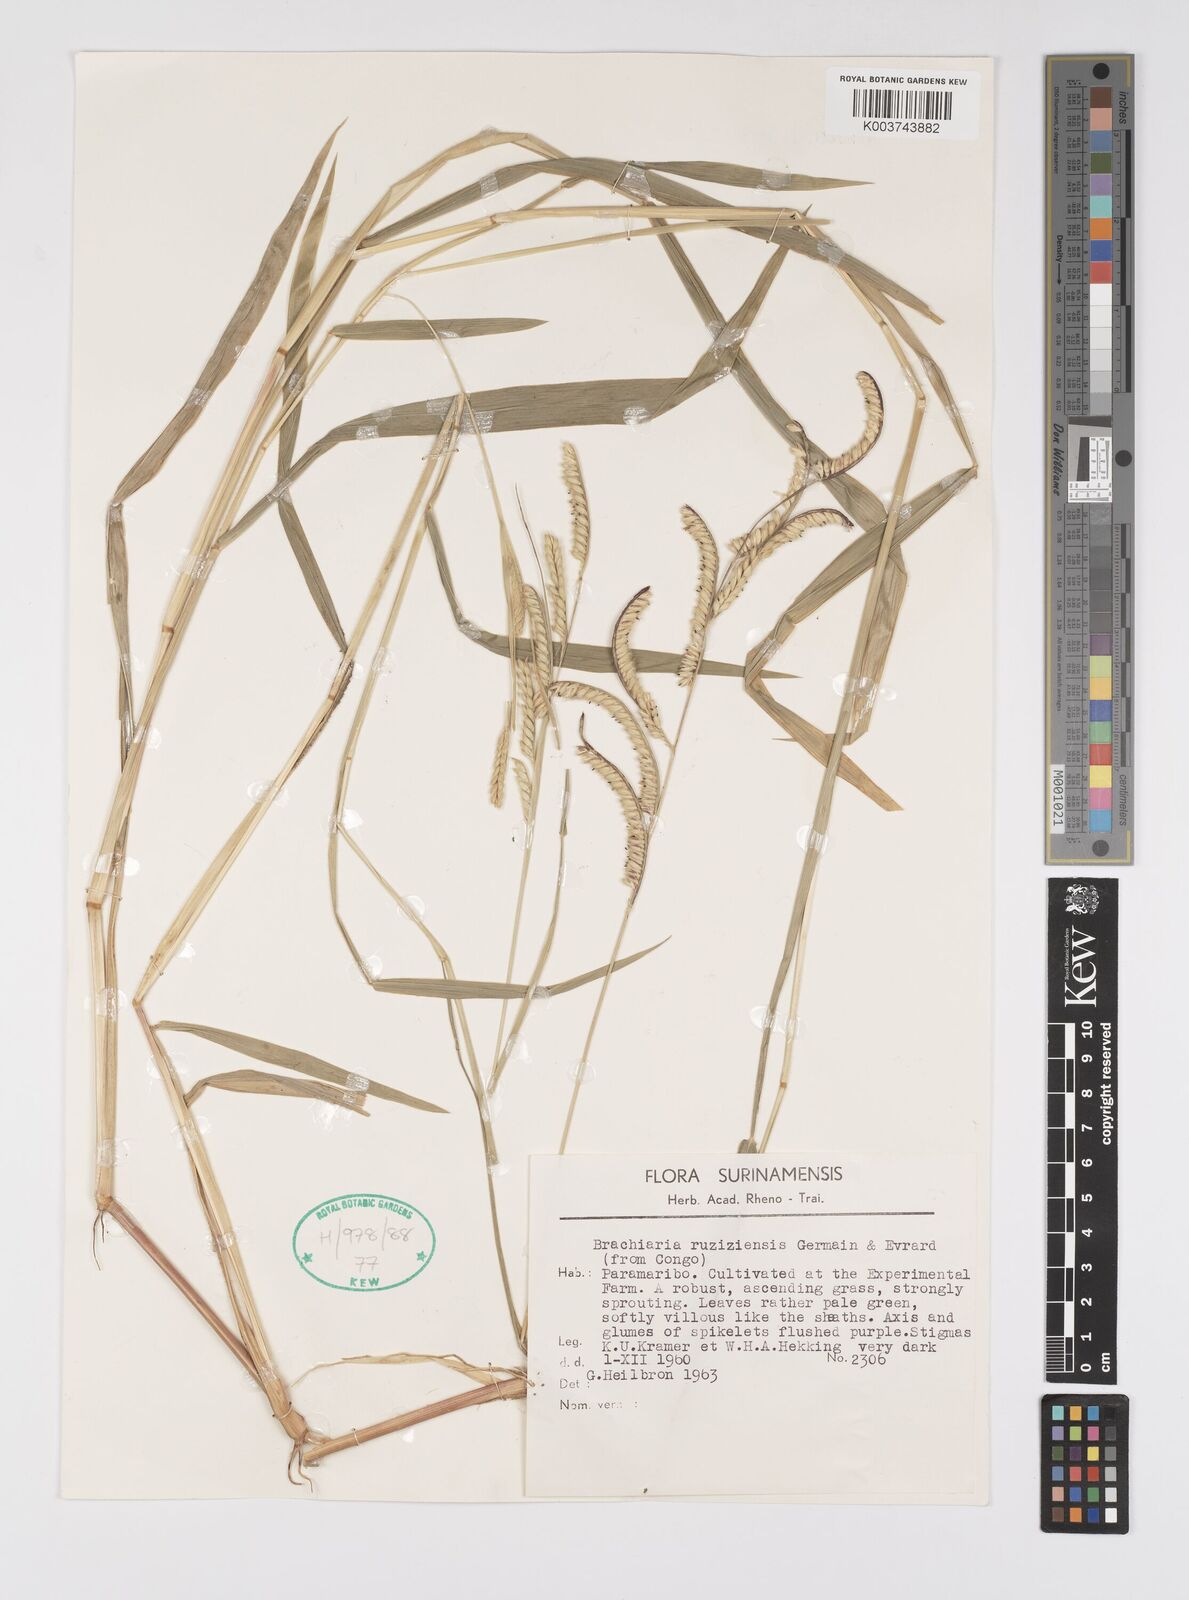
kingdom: Plantae
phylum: Tracheophyta
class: Liliopsida
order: Poales
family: Poaceae
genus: Urochloa
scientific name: Urochloa eminii
